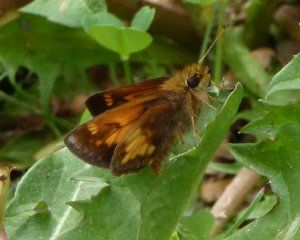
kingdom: Animalia
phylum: Arthropoda
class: Insecta
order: Lepidoptera
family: Hesperiidae
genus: Lon
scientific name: Lon hobomok
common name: Hobomok Skipper
